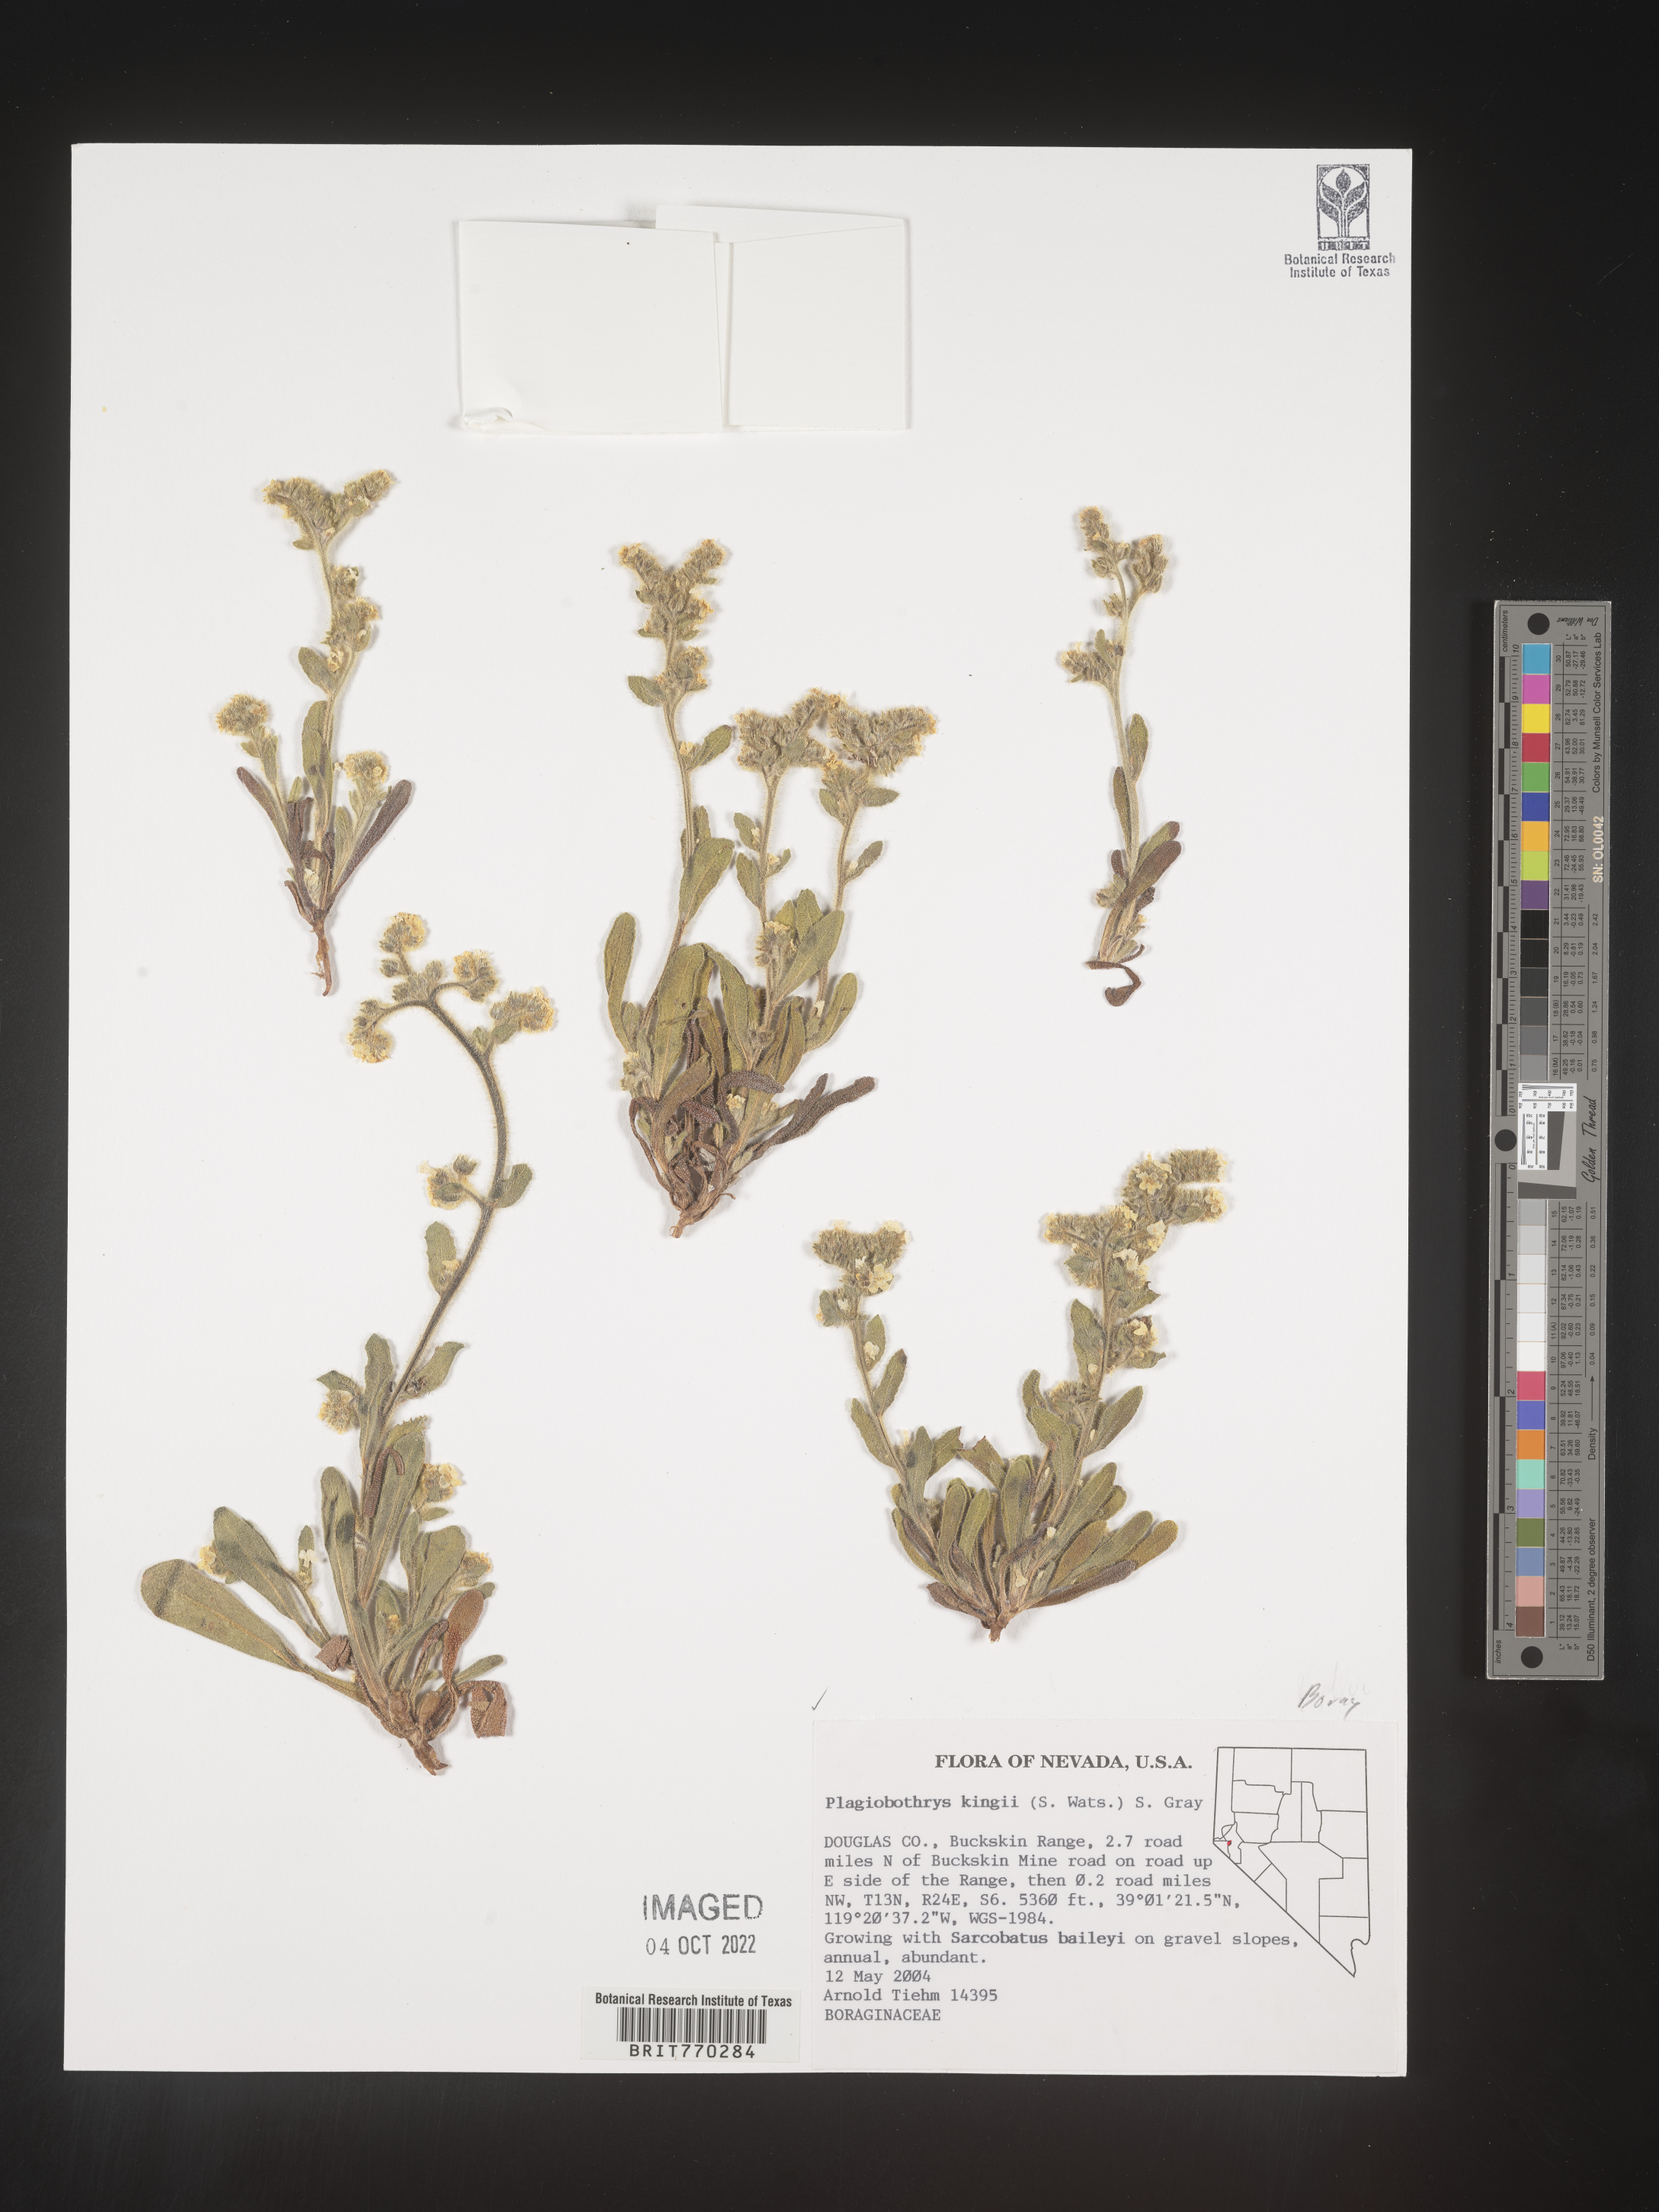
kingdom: Plantae
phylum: Tracheophyta
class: Magnoliopsida
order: Boraginales
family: Boraginaceae
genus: Plagiobothrys
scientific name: Plagiobothrys
